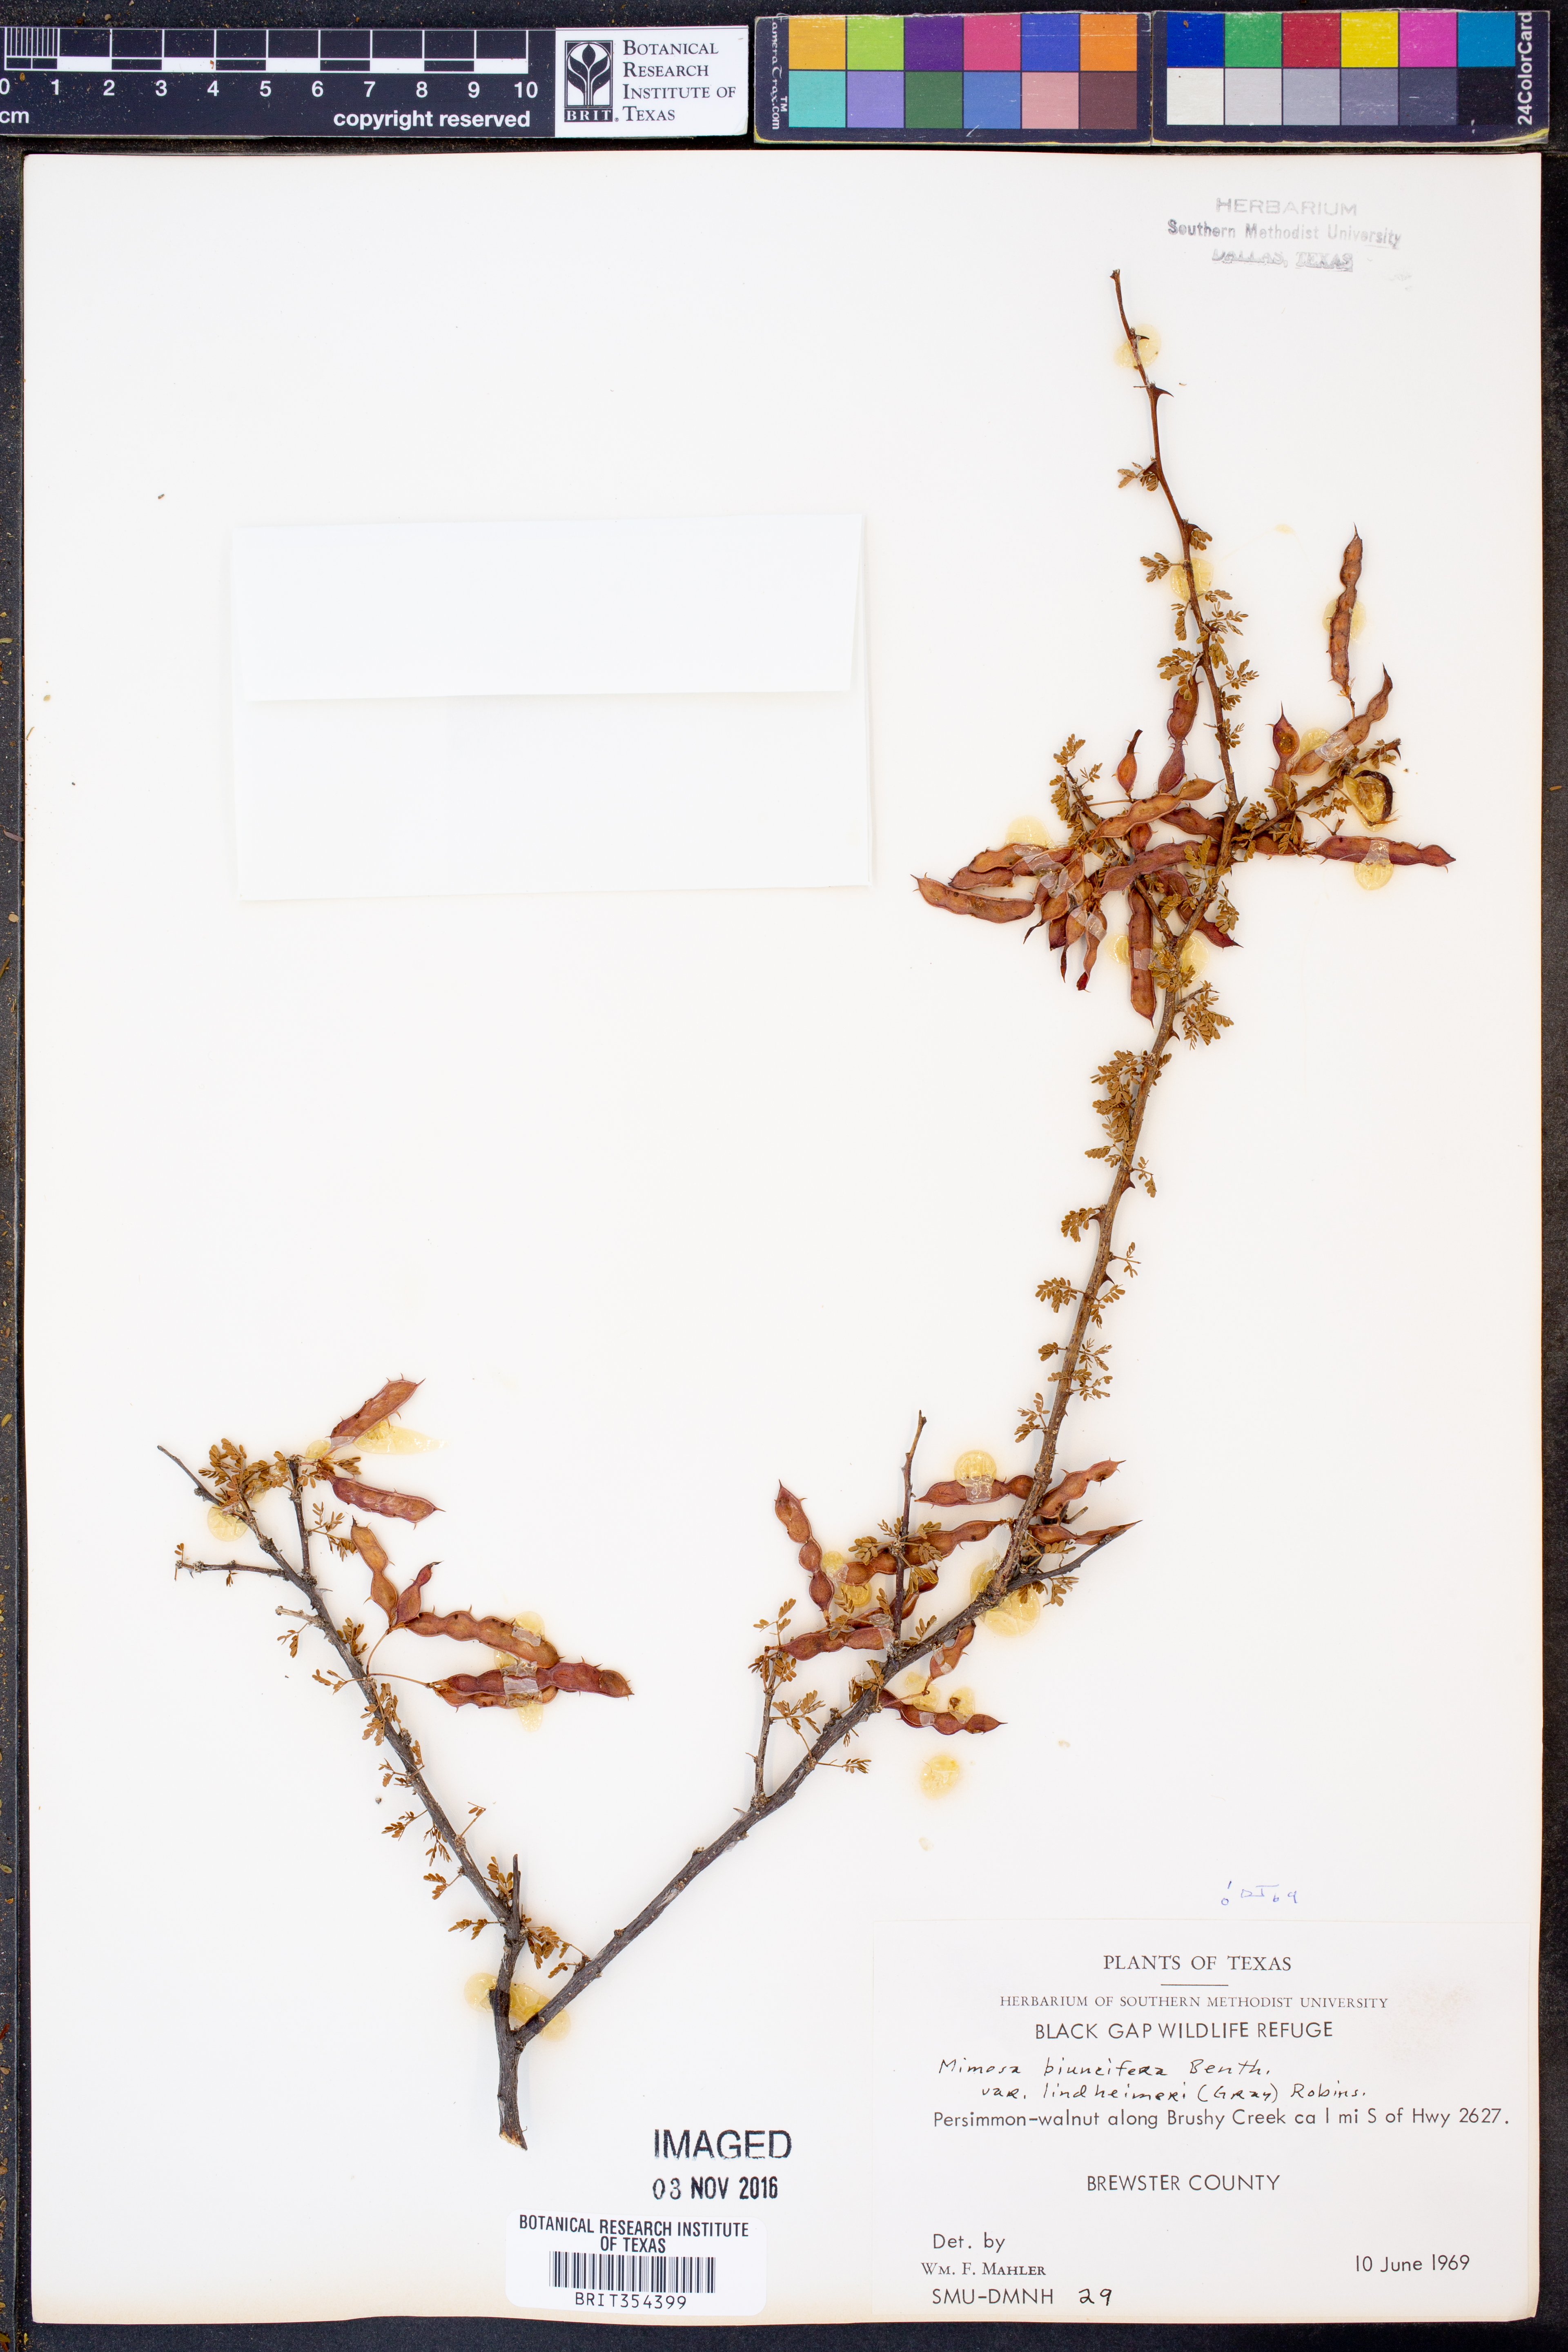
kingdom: Plantae
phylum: Tracheophyta
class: Magnoliopsida
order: Fabales
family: Fabaceae
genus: Mimosa
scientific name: Mimosa biuncifera
